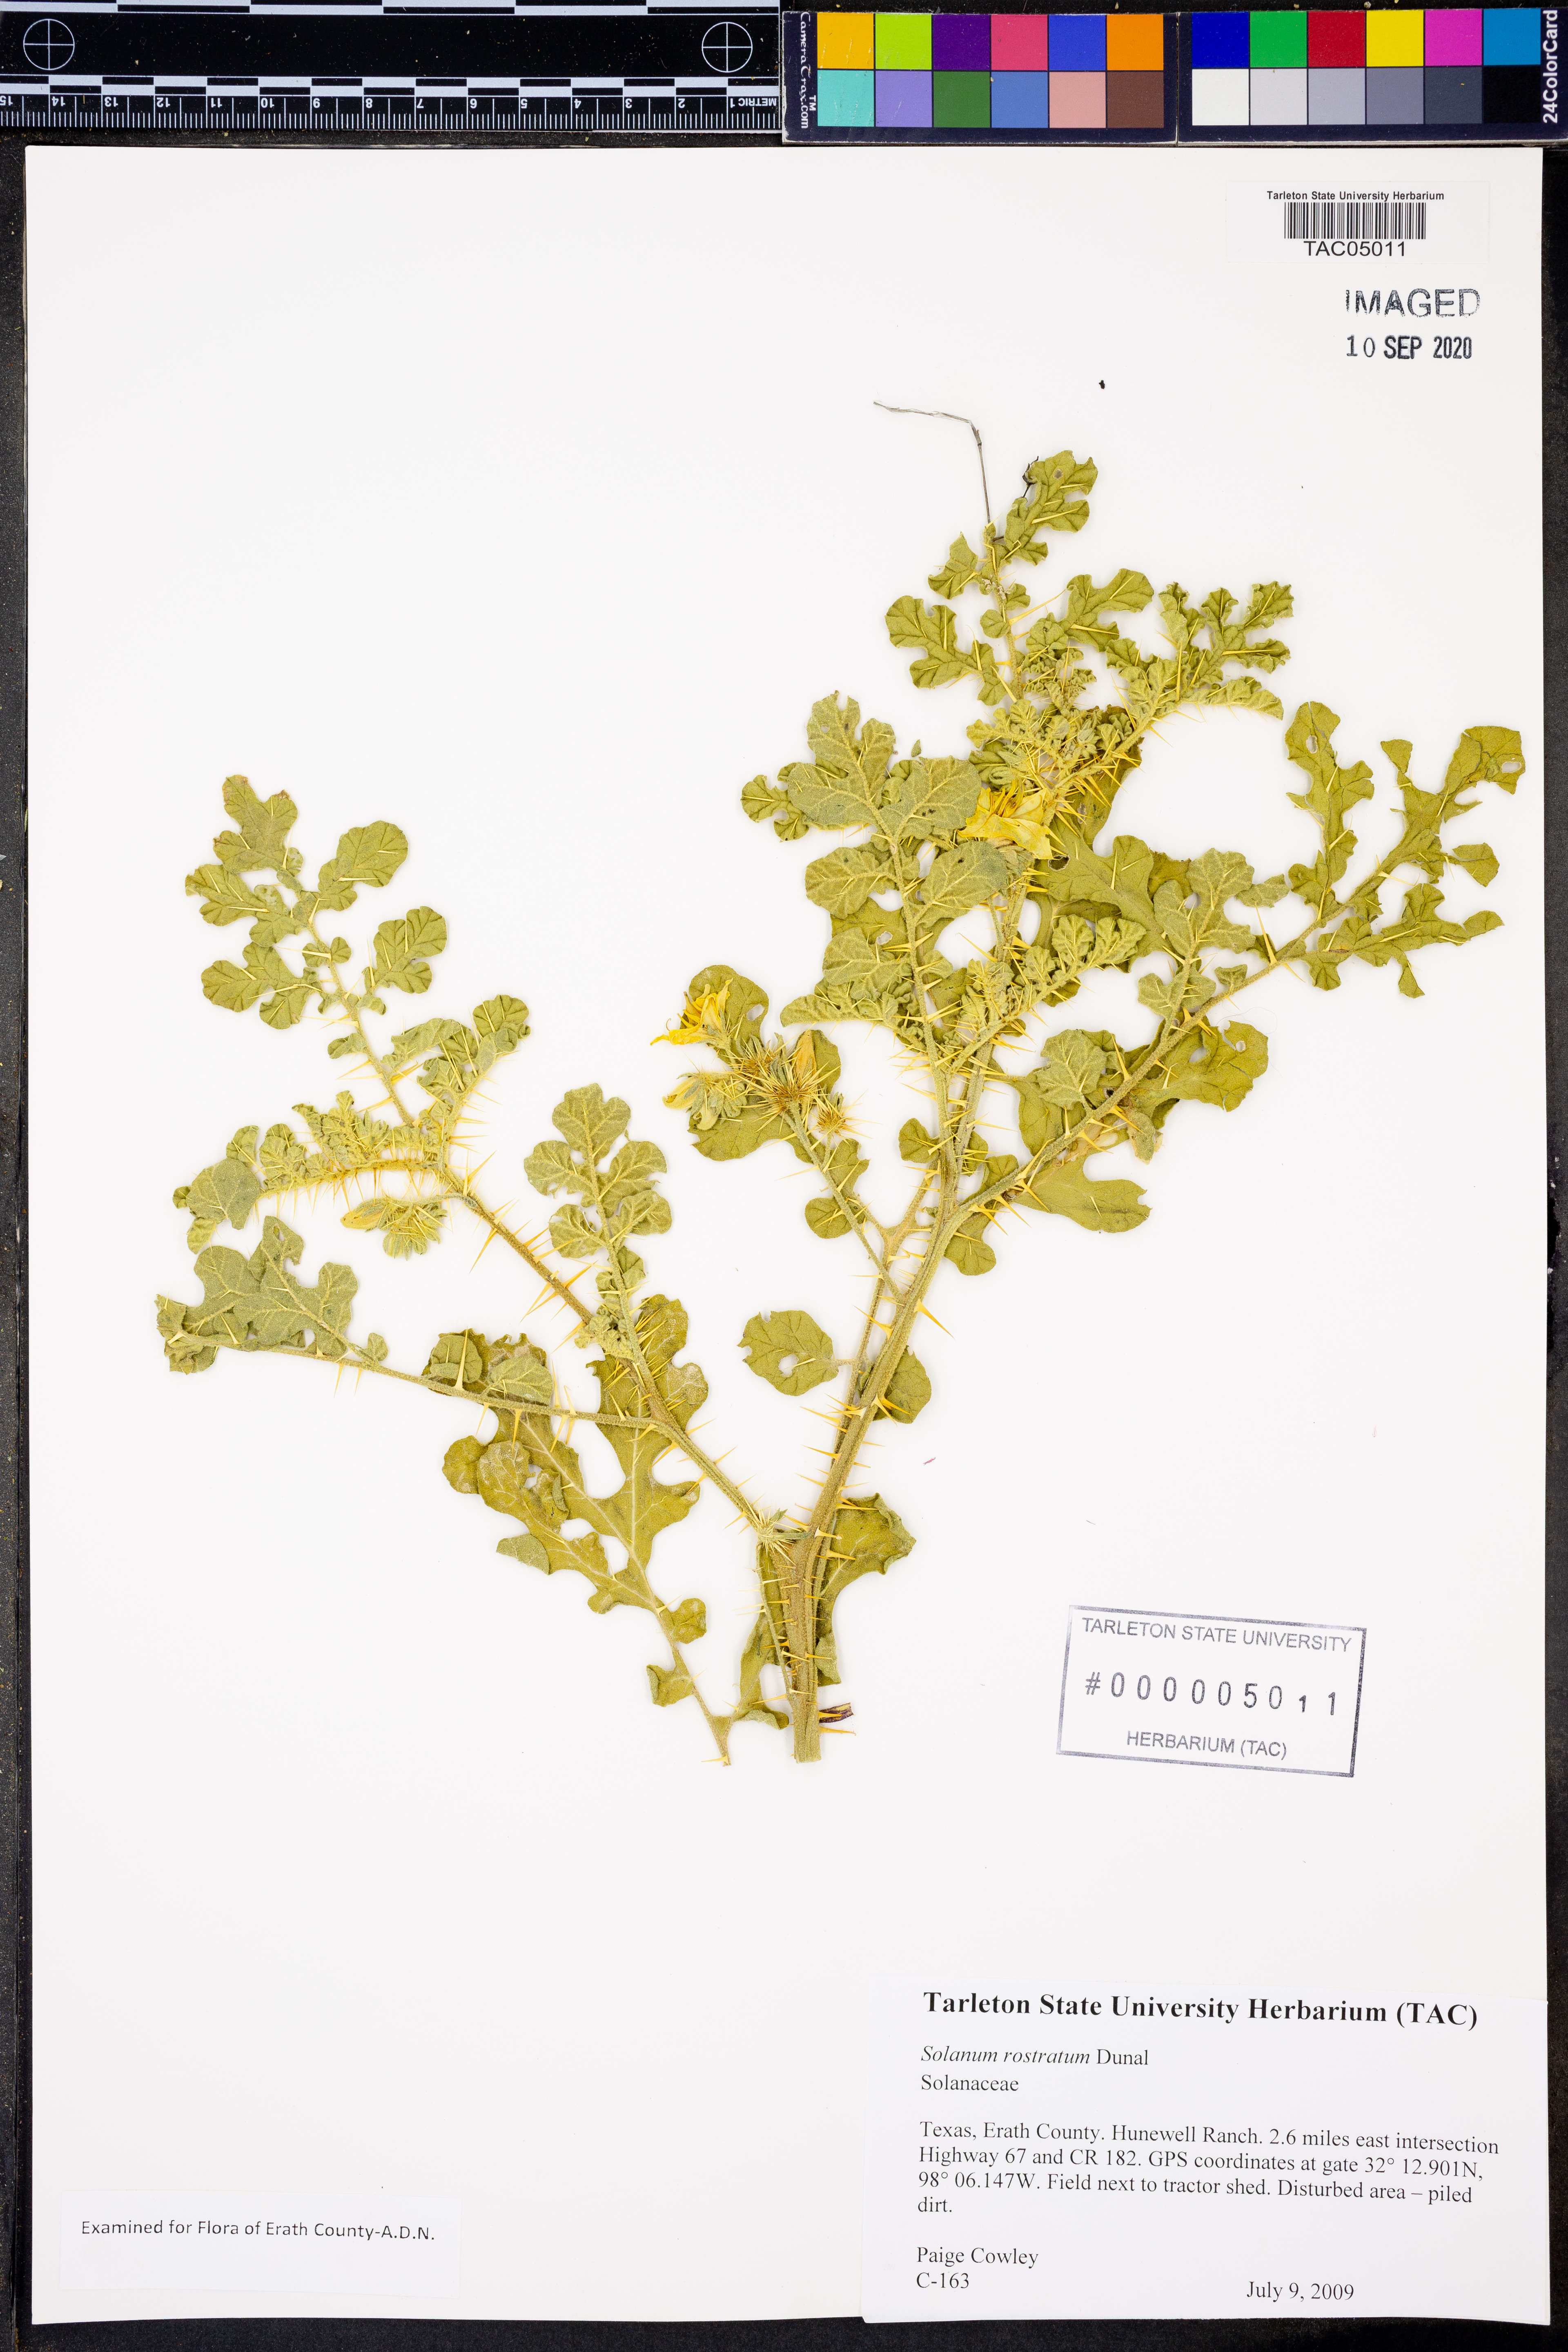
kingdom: Plantae
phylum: Tracheophyta
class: Magnoliopsida
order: Solanales
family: Solanaceae
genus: Solanum
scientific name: Solanum angustifolium
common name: Buffalobur nightshade
